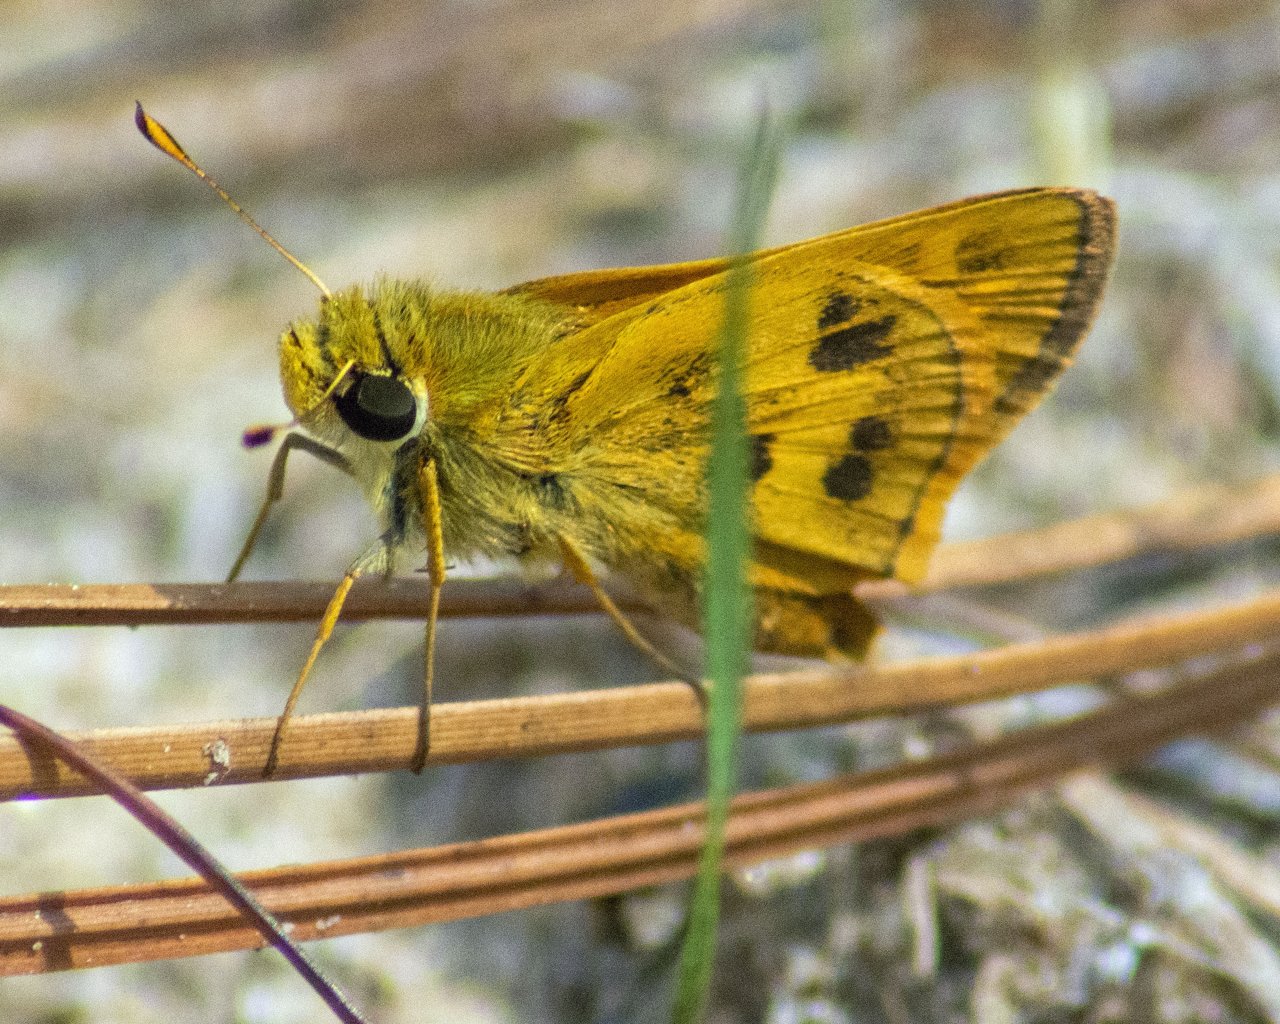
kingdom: Animalia
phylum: Arthropoda
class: Insecta
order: Lepidoptera
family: Hesperiidae
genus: Polites
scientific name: Polites vibex
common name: Whirlabout
